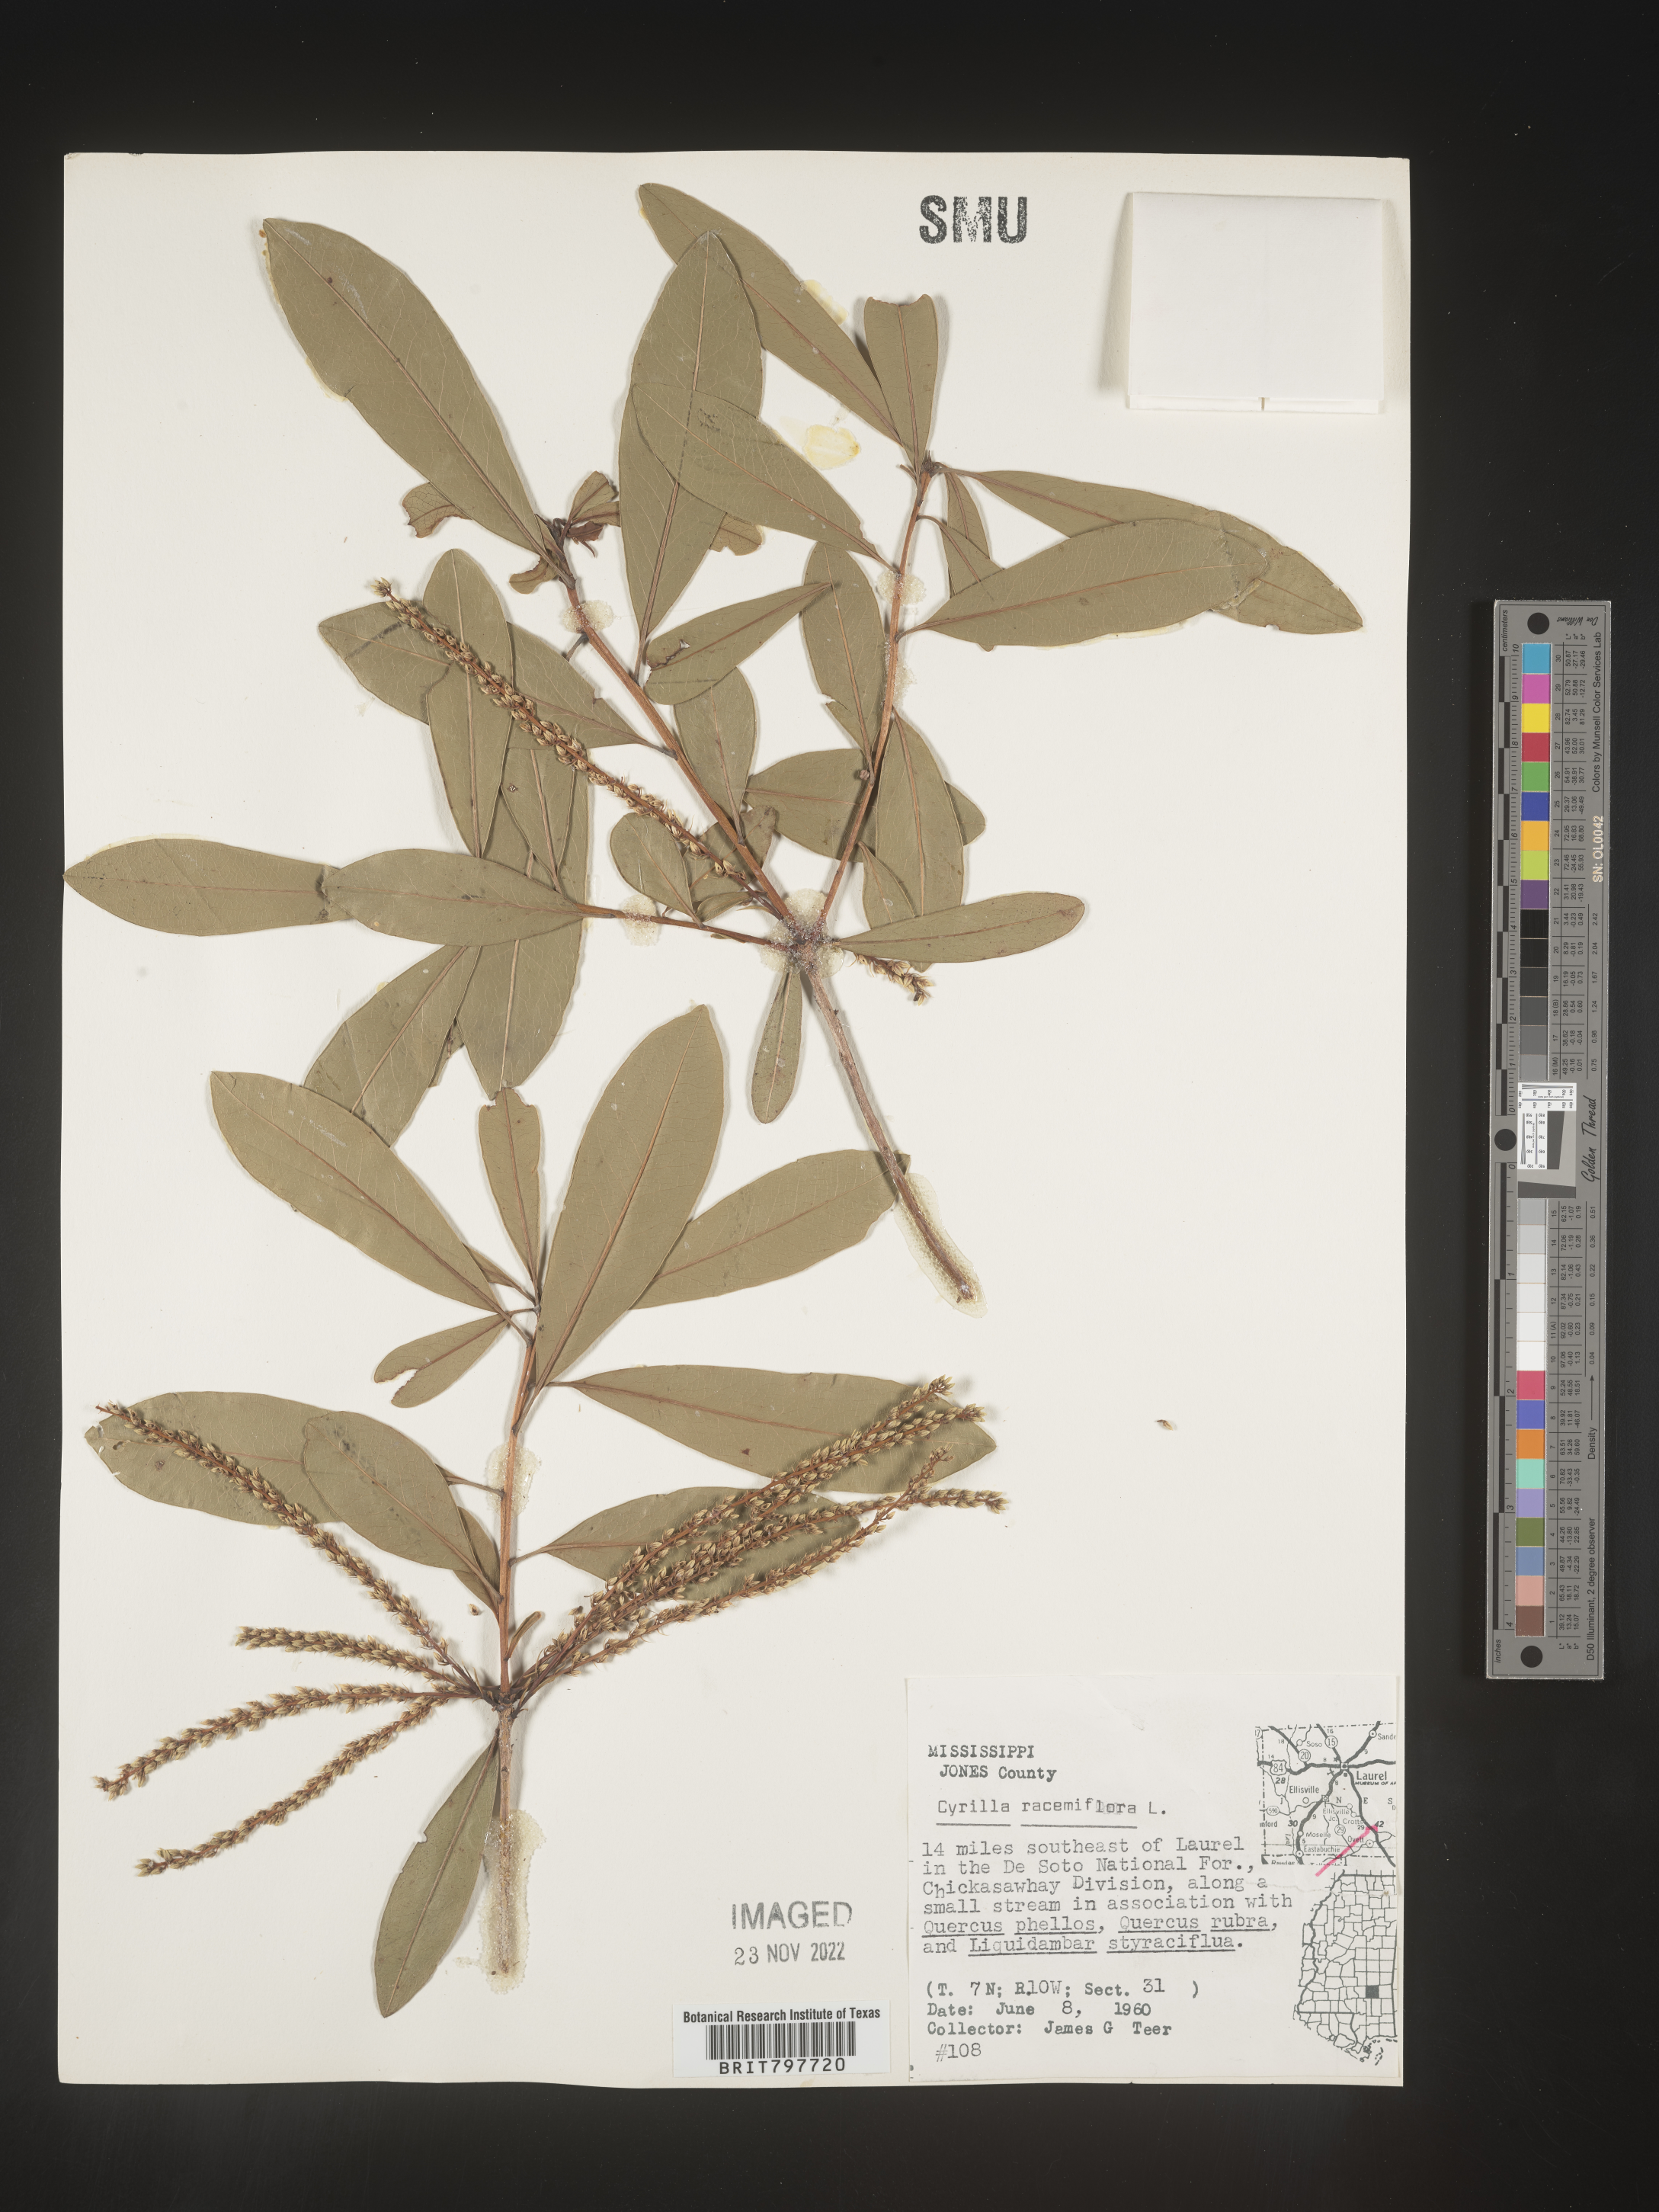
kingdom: Plantae
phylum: Tracheophyta
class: Magnoliopsida
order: Ericales
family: Cyrillaceae
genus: Cyrilla
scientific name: Cyrilla racemiflora
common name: Black titi
